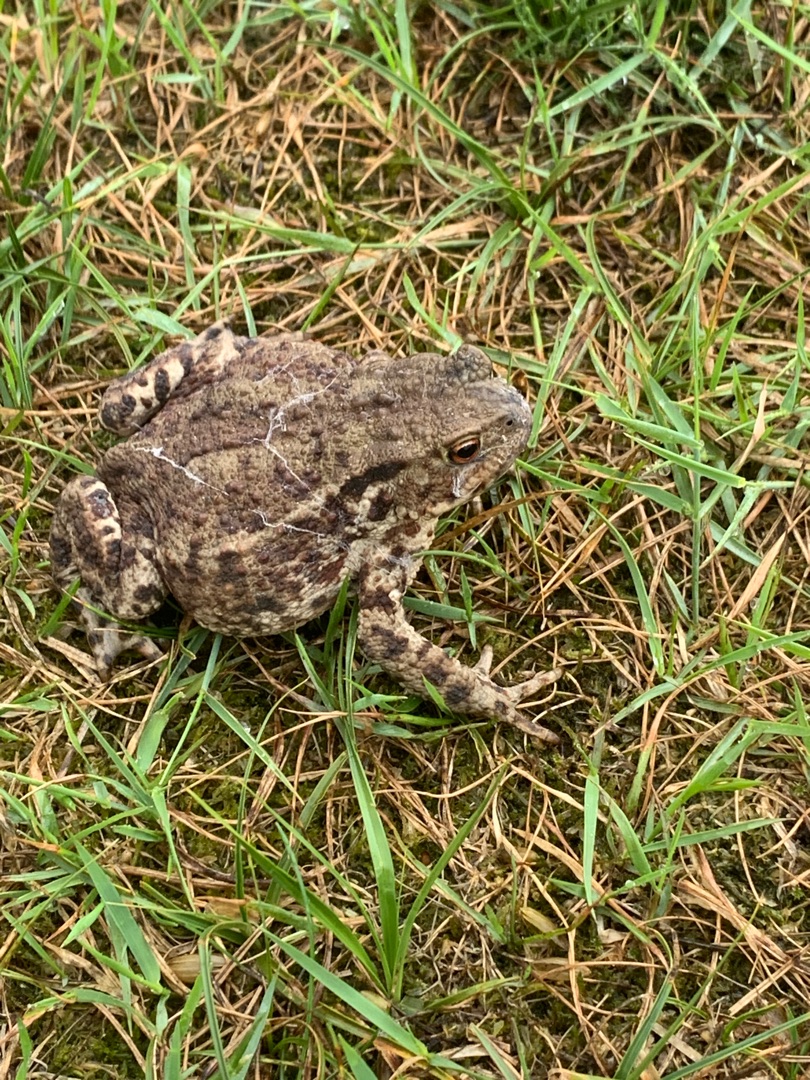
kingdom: Animalia
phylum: Chordata
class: Amphibia
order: Anura
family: Bufonidae
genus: Bufo
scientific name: Bufo bufo
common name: Skrubtudse
